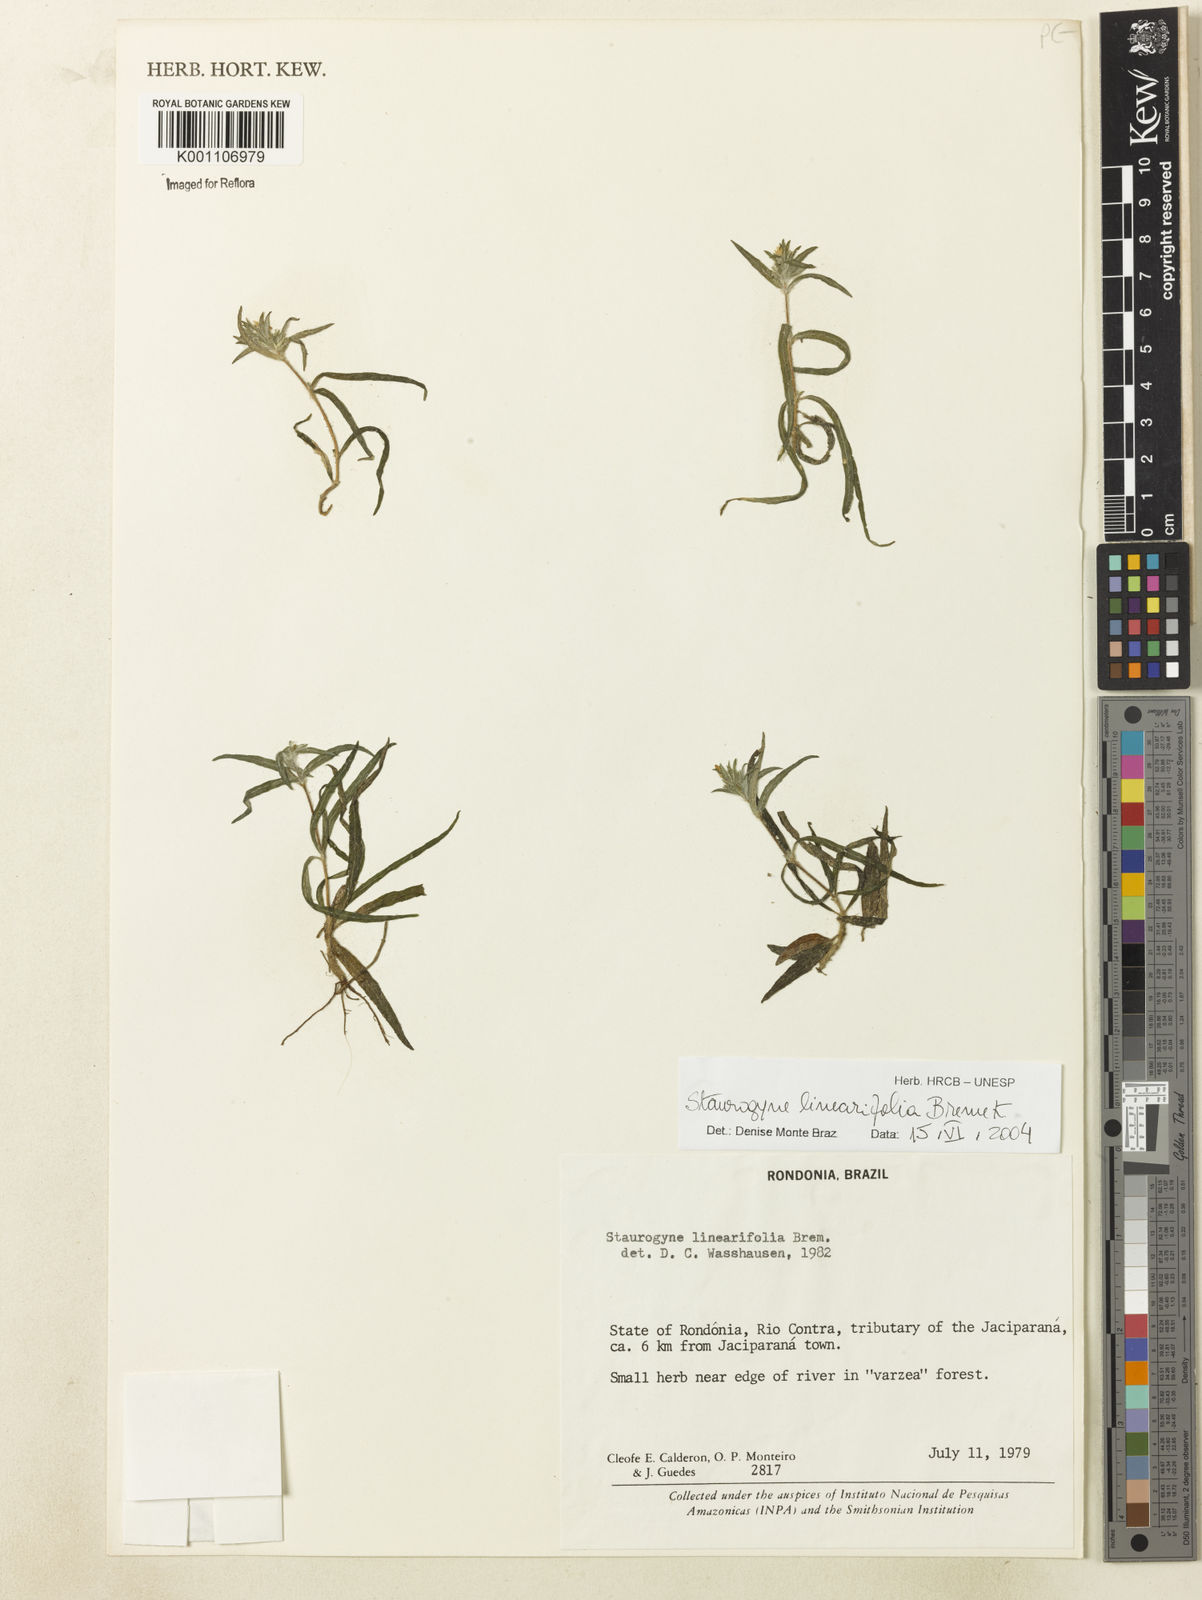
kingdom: Plantae
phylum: Tracheophyta
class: Magnoliopsida
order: Lamiales
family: Acanthaceae
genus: Staurogyne
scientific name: Staurogyne stolonifera
